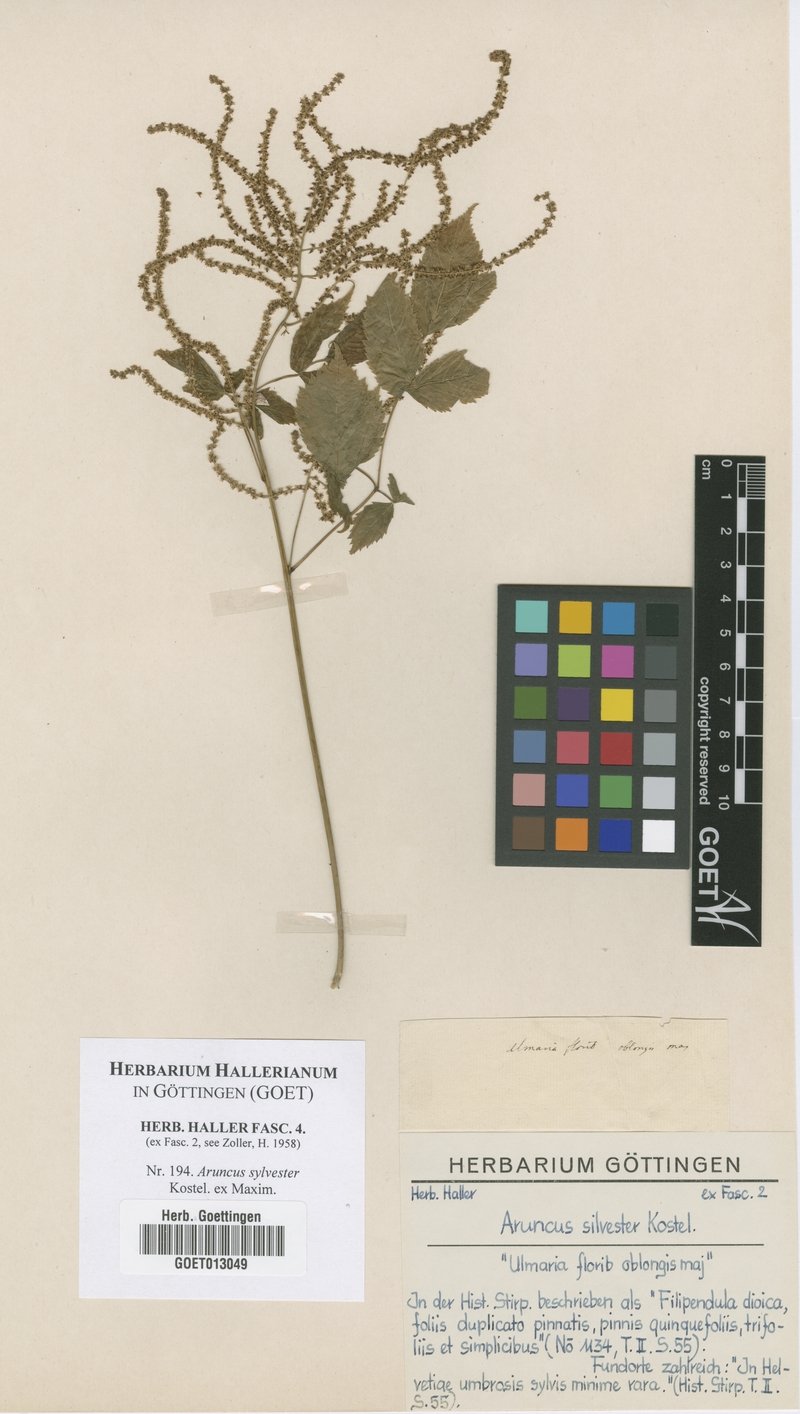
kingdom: Plantae
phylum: Tracheophyta
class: Magnoliopsida
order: Rosales
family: Rosaceae
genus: Aruncus
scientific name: Aruncus sylvester
